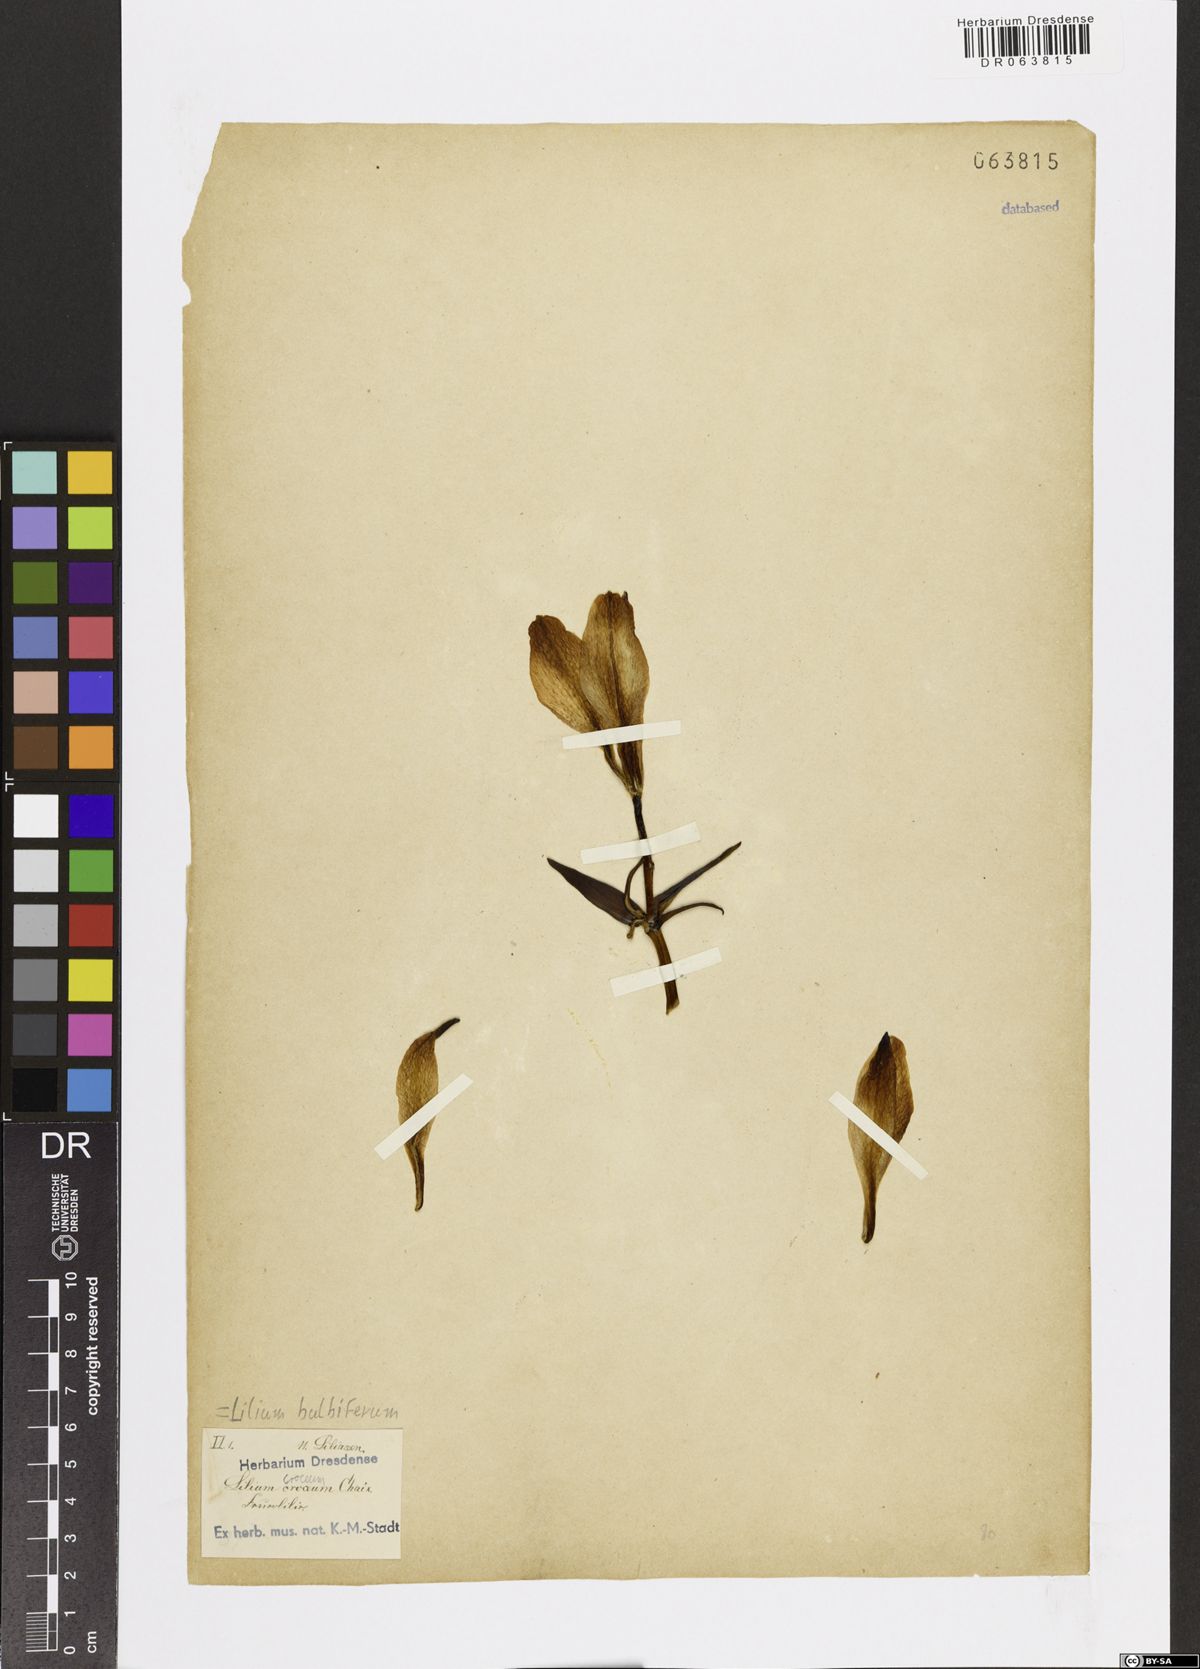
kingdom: Plantae
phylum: Tracheophyta
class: Liliopsida
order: Liliales
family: Liliaceae
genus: Lilium
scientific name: Lilium bulbiferum
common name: Orange lily
